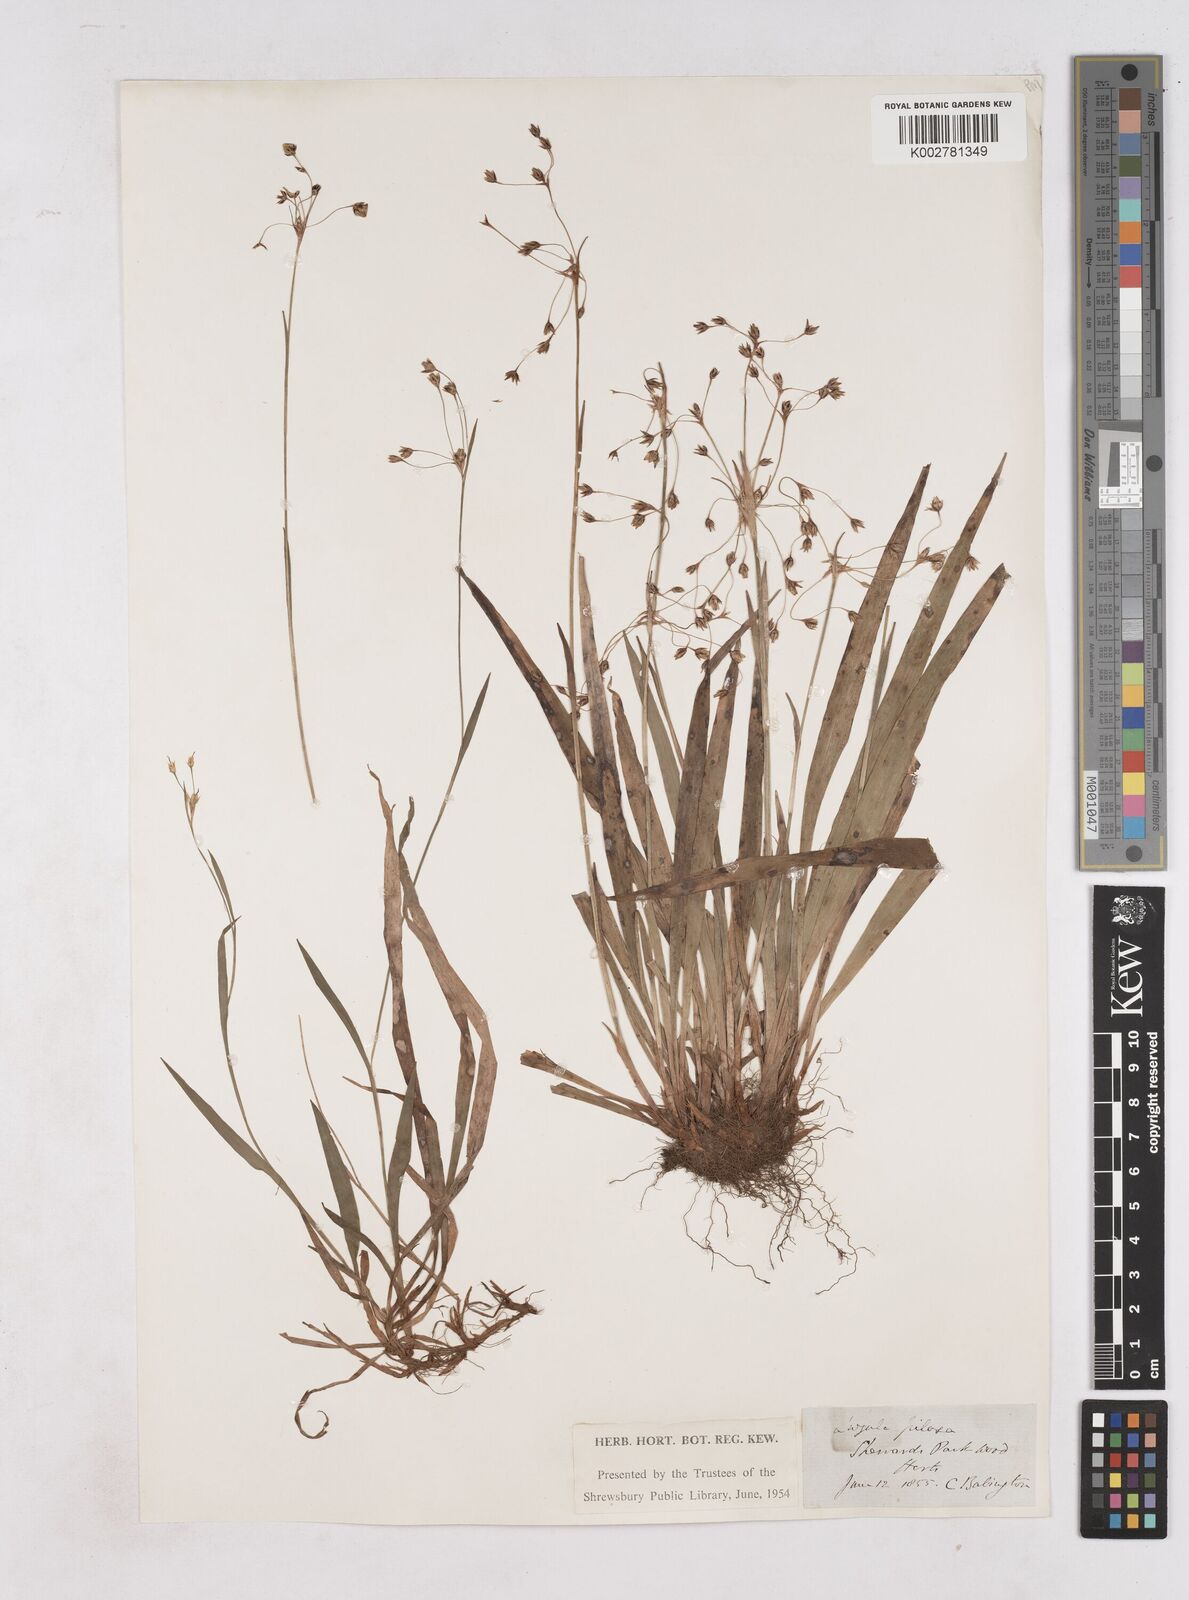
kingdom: Plantae
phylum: Tracheophyta
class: Liliopsida
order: Poales
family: Juncaceae
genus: Luzula
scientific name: Luzula pilosa
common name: Hairy wood-rush
